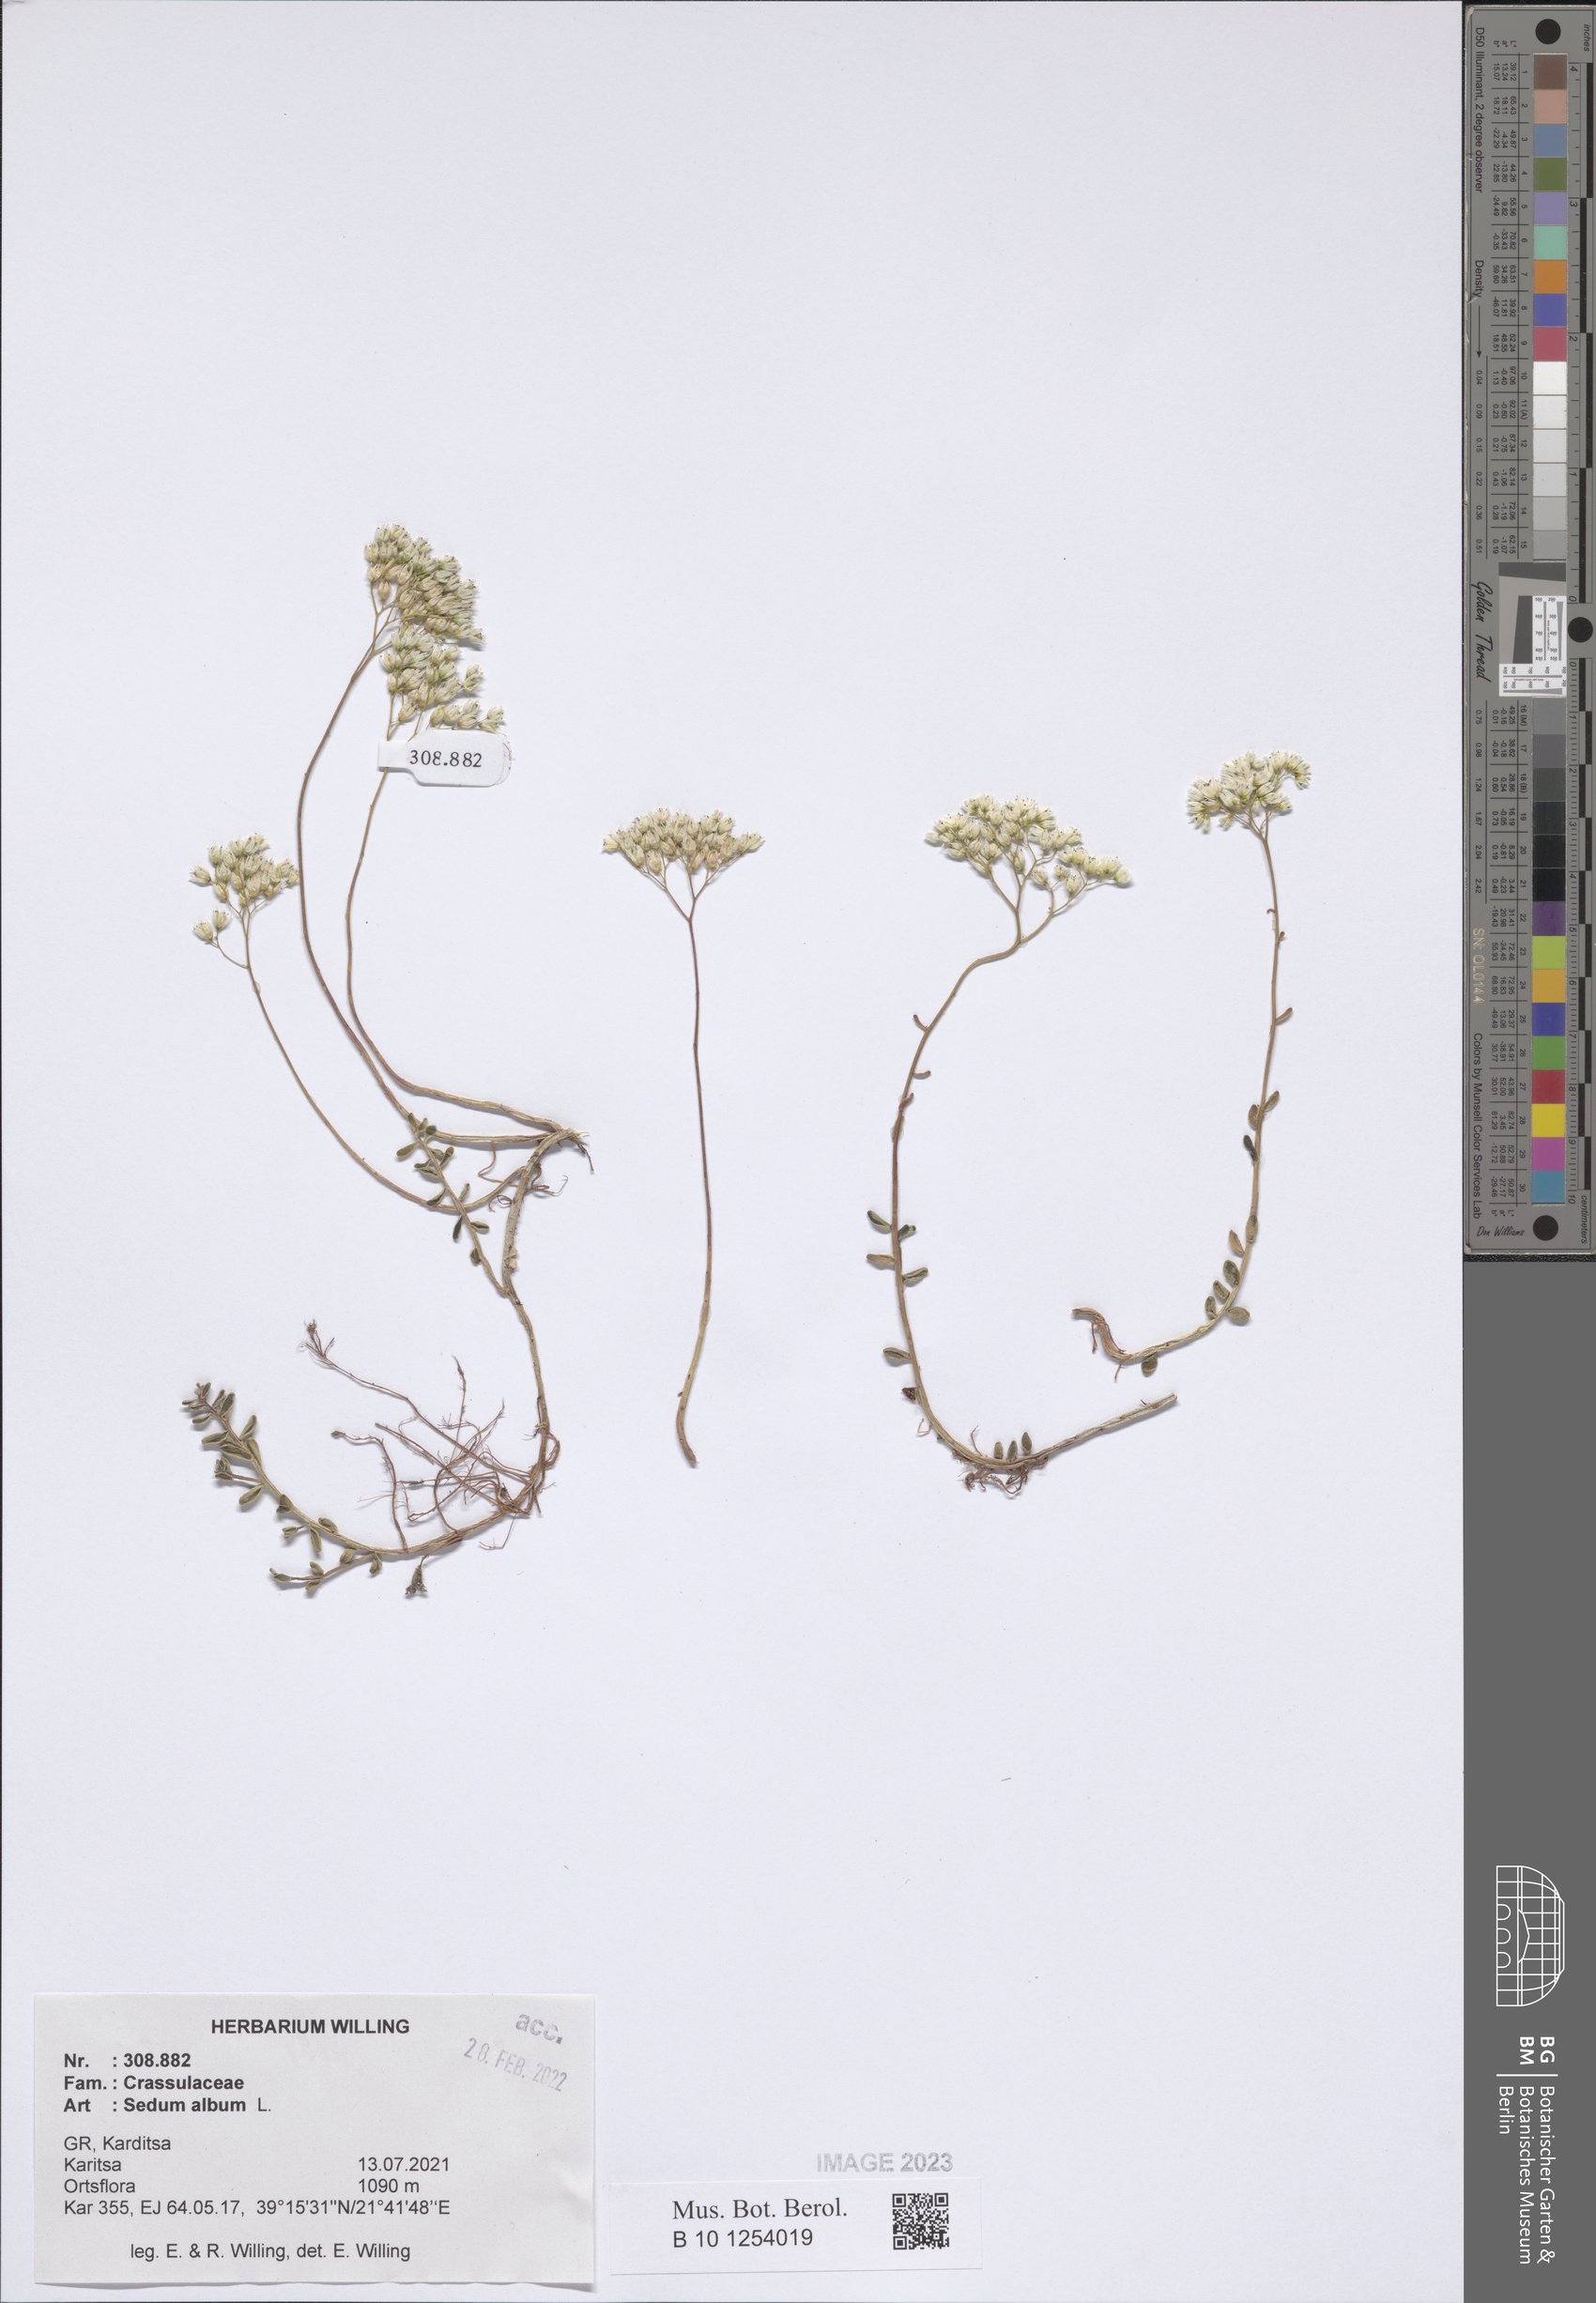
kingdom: Plantae
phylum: Tracheophyta
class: Magnoliopsida
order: Saxifragales
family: Crassulaceae
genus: Sedum
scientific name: Sedum album
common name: White stonecrop
